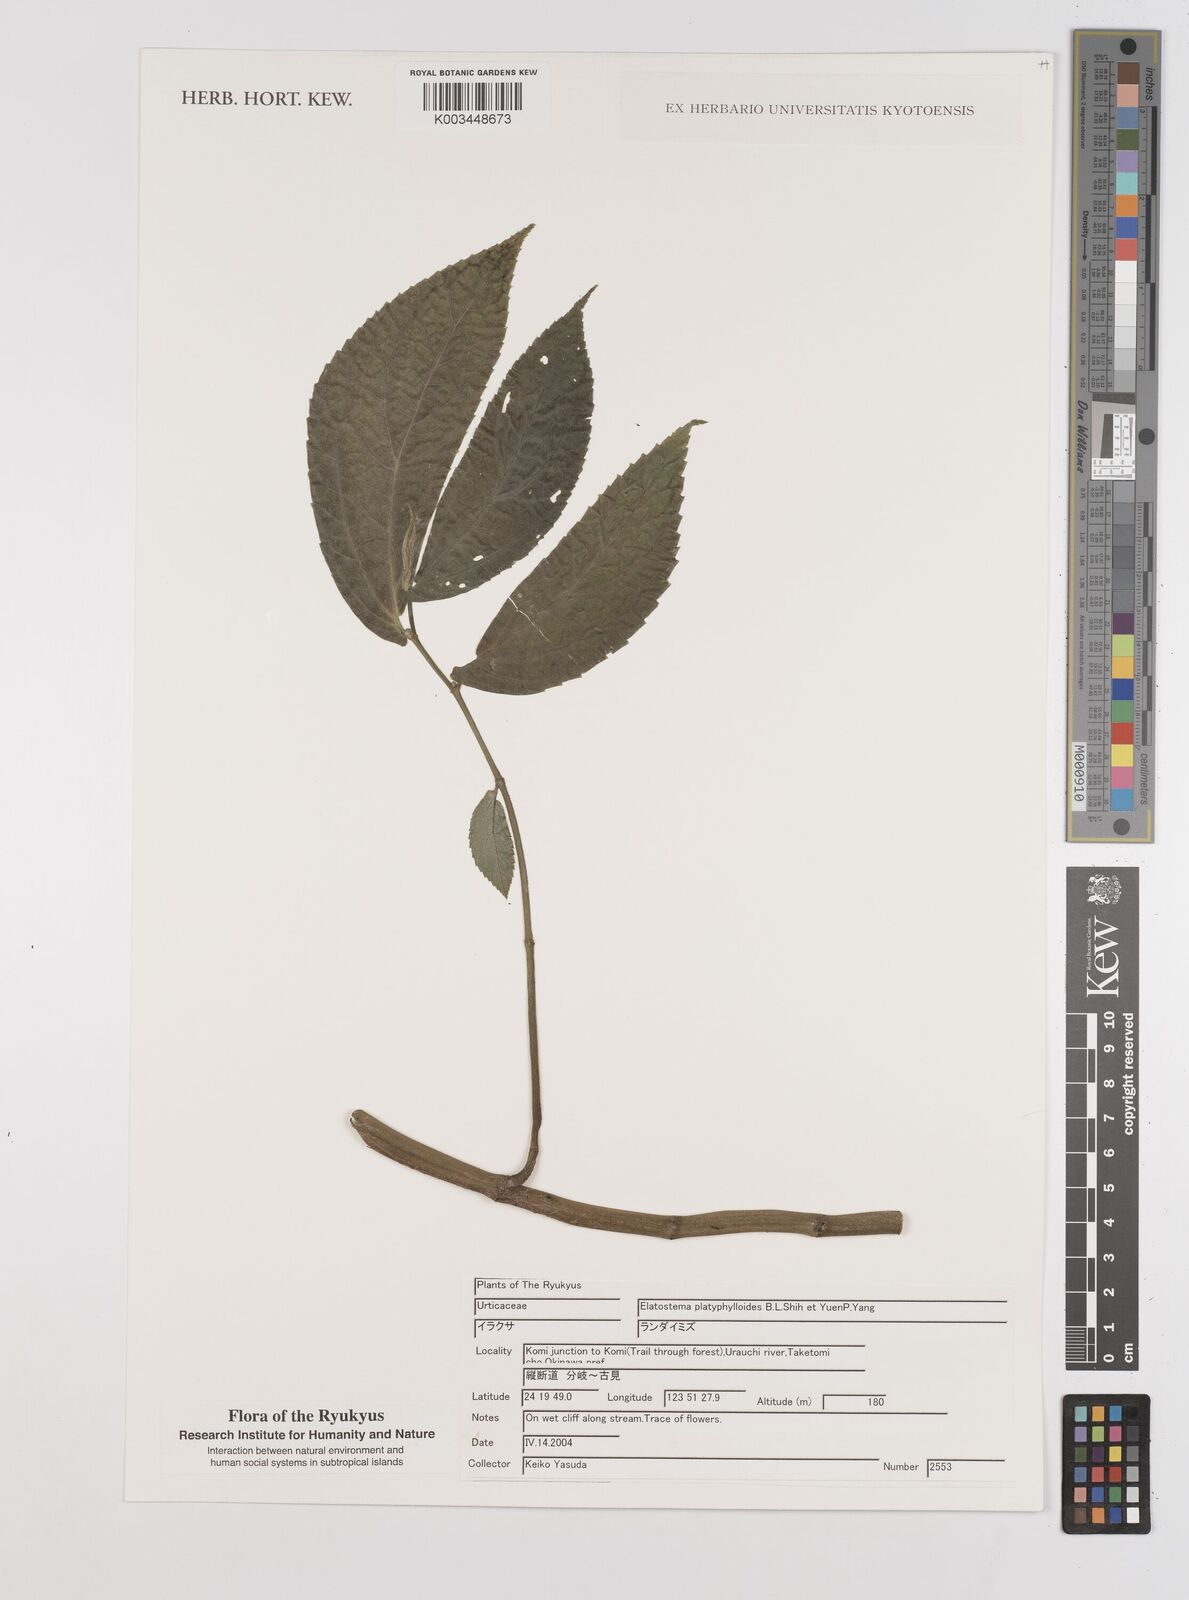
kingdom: Plantae
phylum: Tracheophyta
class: Magnoliopsida
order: Rosales
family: Urticaceae
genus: Elatostema
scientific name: Elatostema platyphyllum
